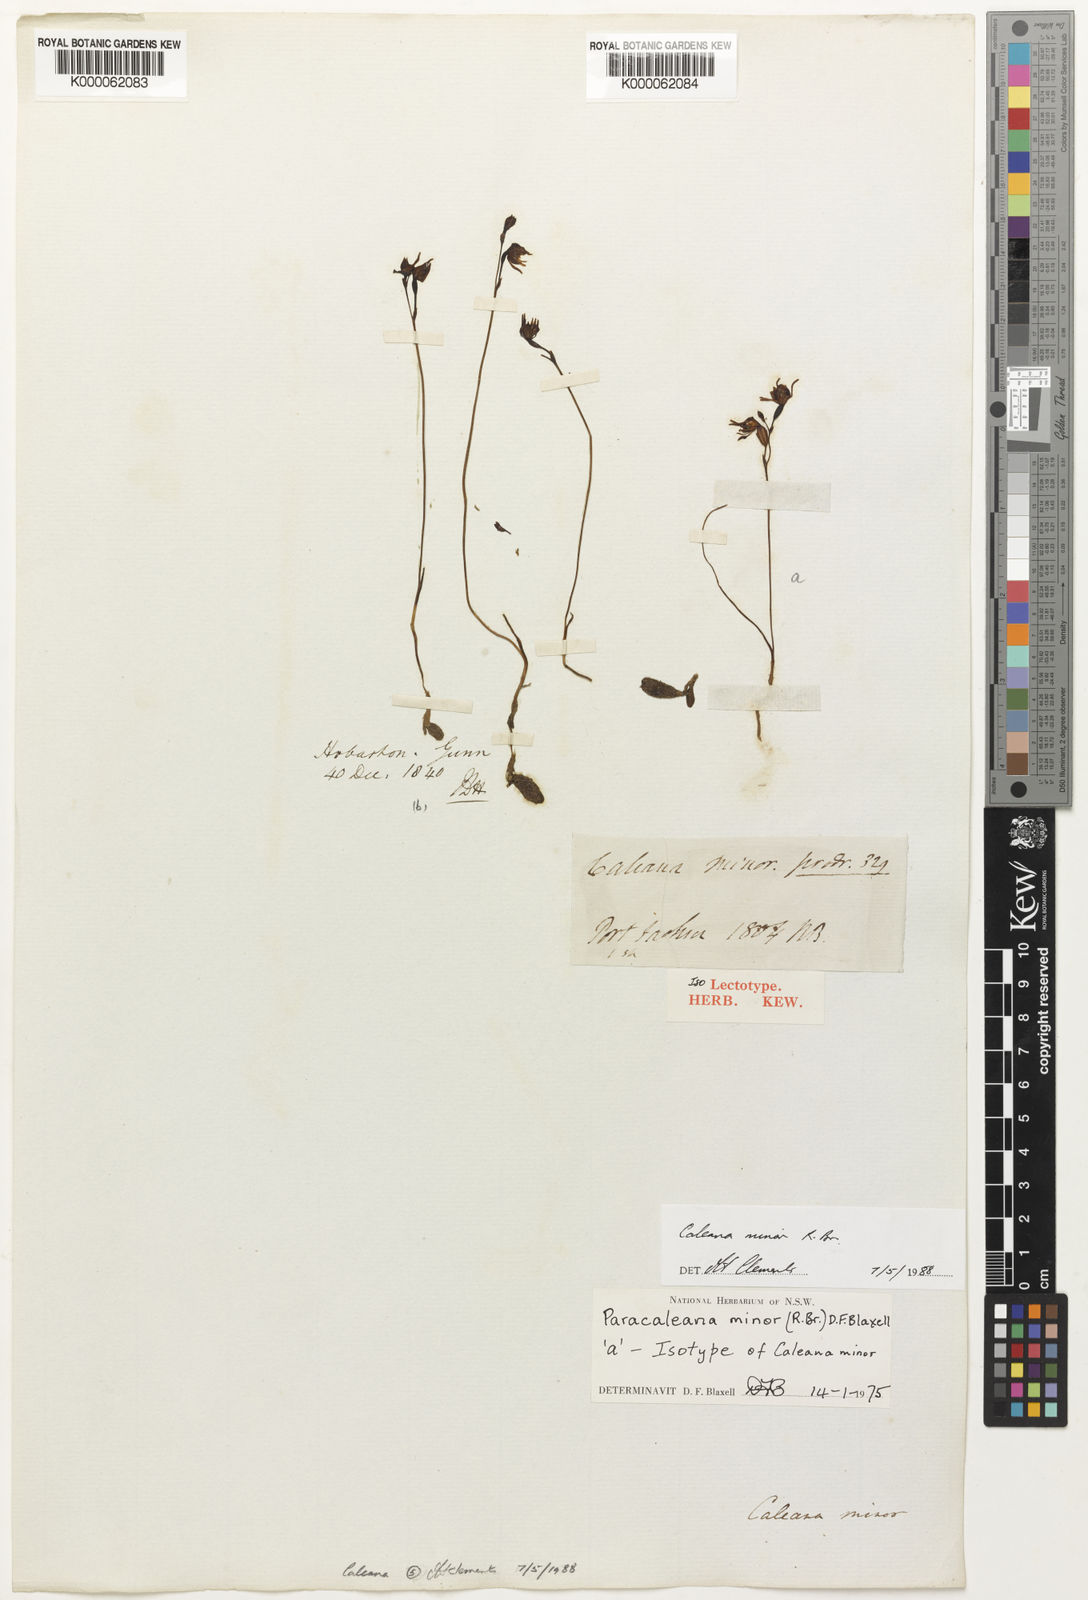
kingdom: Plantae
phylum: Tracheophyta
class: Liliopsida
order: Asparagales
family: Orchidaceae
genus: Caleana
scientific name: Caleana minor
